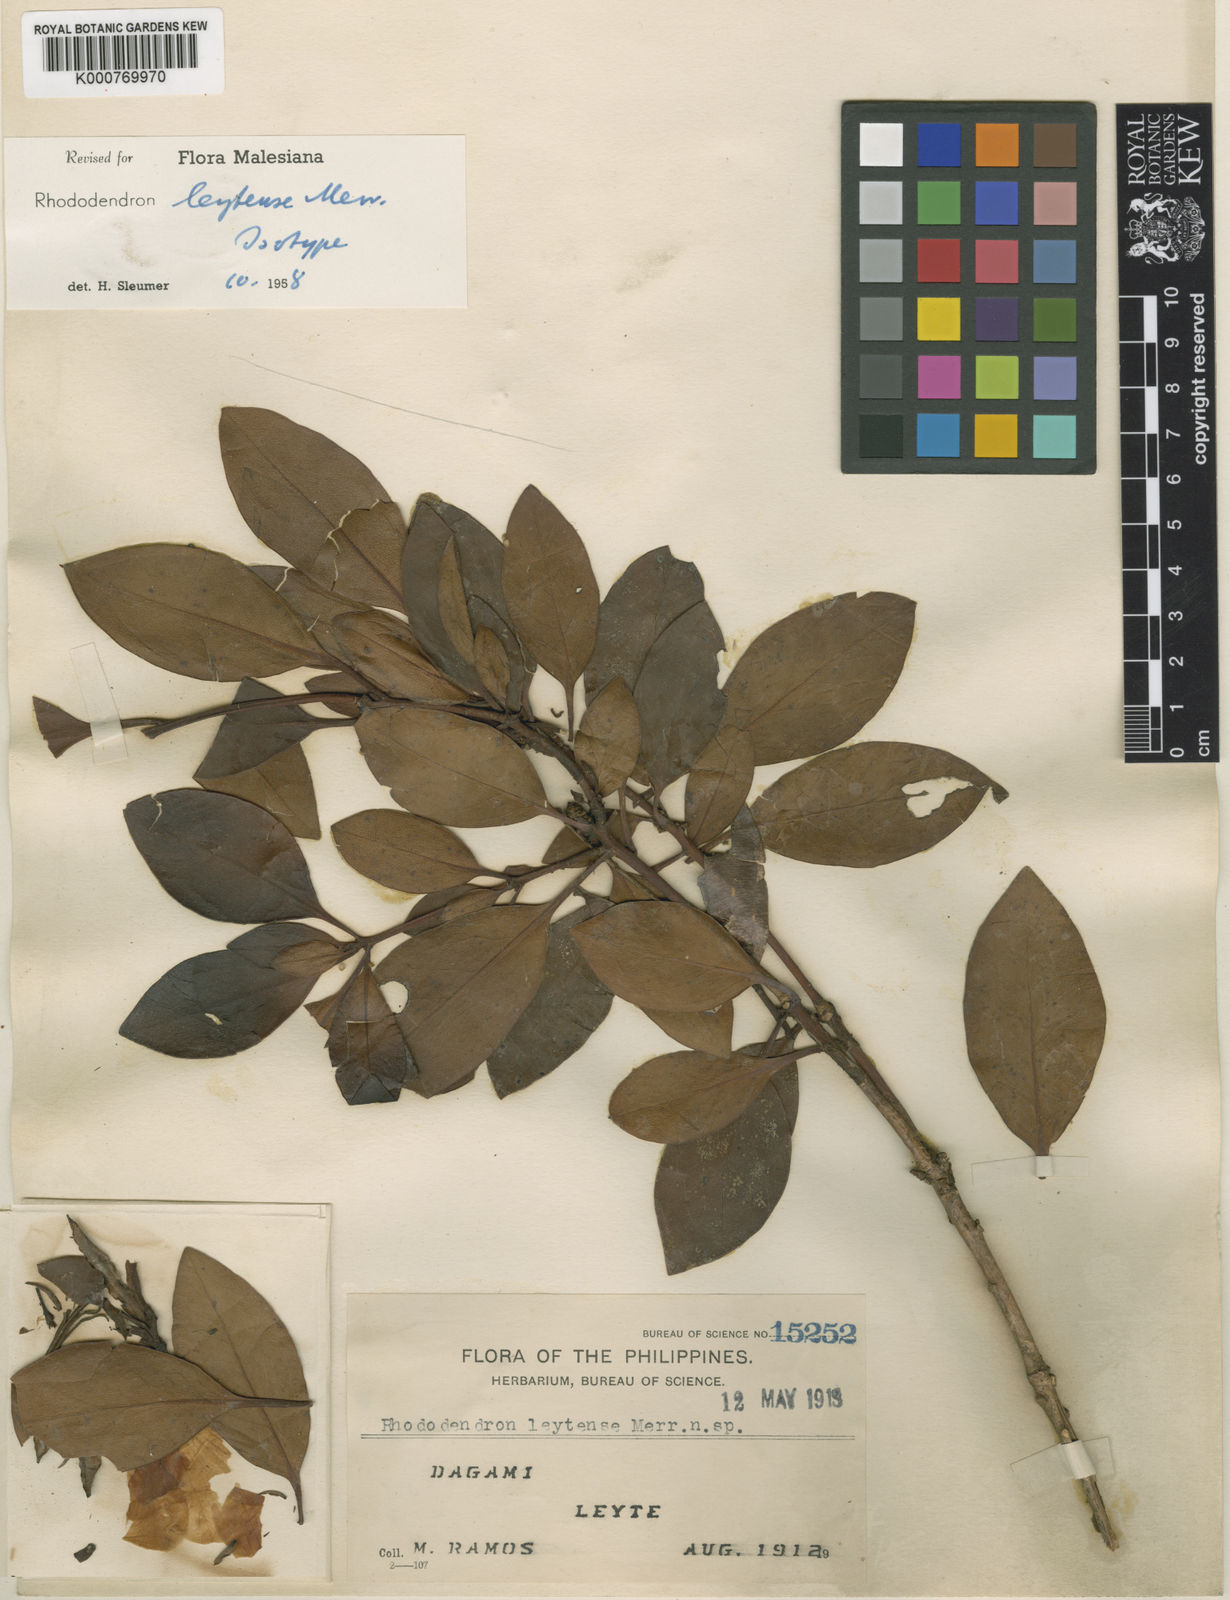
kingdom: Plantae
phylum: Tracheophyta
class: Magnoliopsida
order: Ericales
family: Ericaceae
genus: Rhododendron
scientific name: Rhododendron leytense
